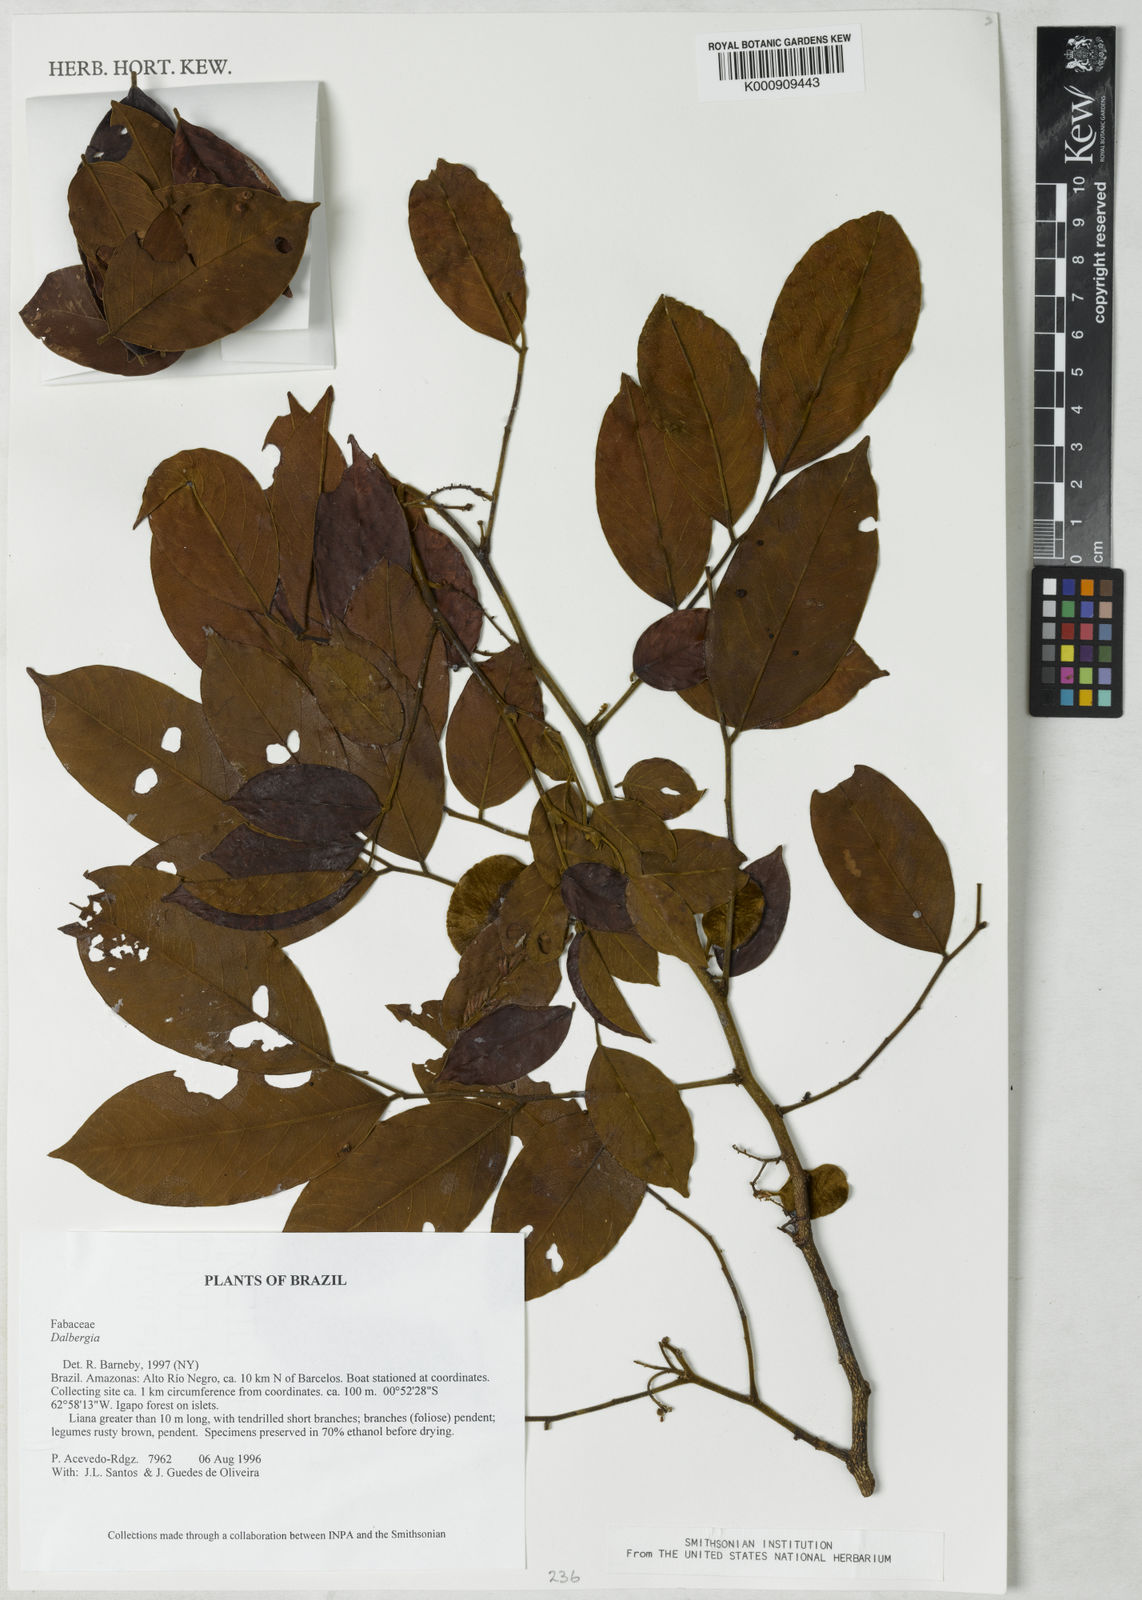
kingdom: Plantae
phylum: Tracheophyta
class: Magnoliopsida
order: Fabales
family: Fabaceae
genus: Dalbergia
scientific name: Dalbergia
